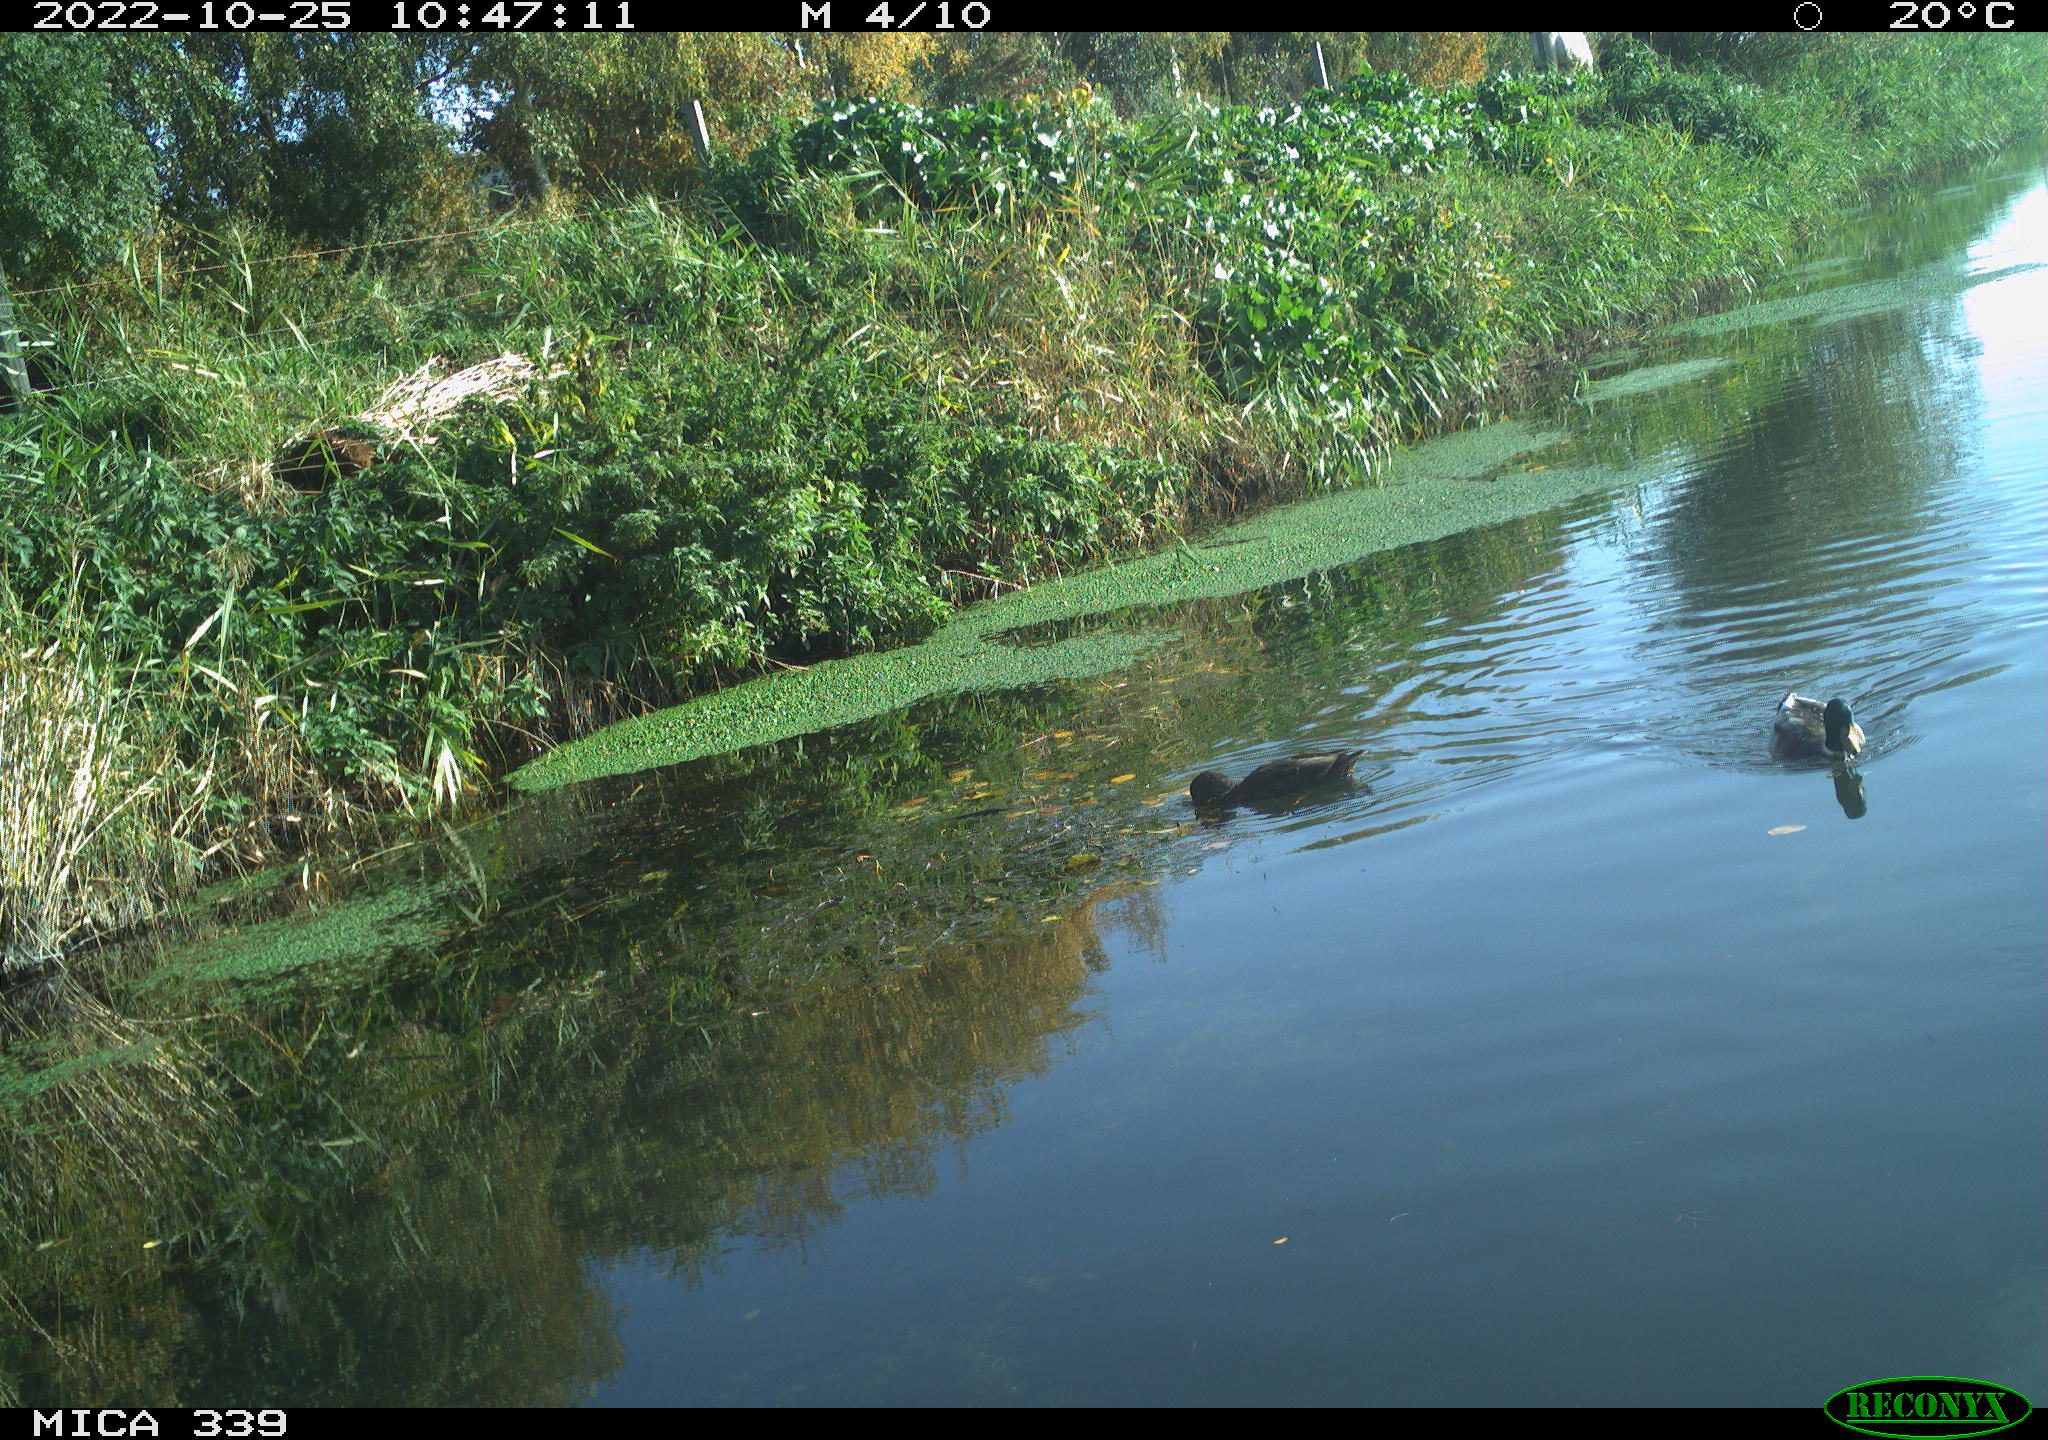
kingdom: Animalia
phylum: Chordata
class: Aves
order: Anseriformes
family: Anatidae
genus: Anas
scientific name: Anas platyrhynchos
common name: Mallard
